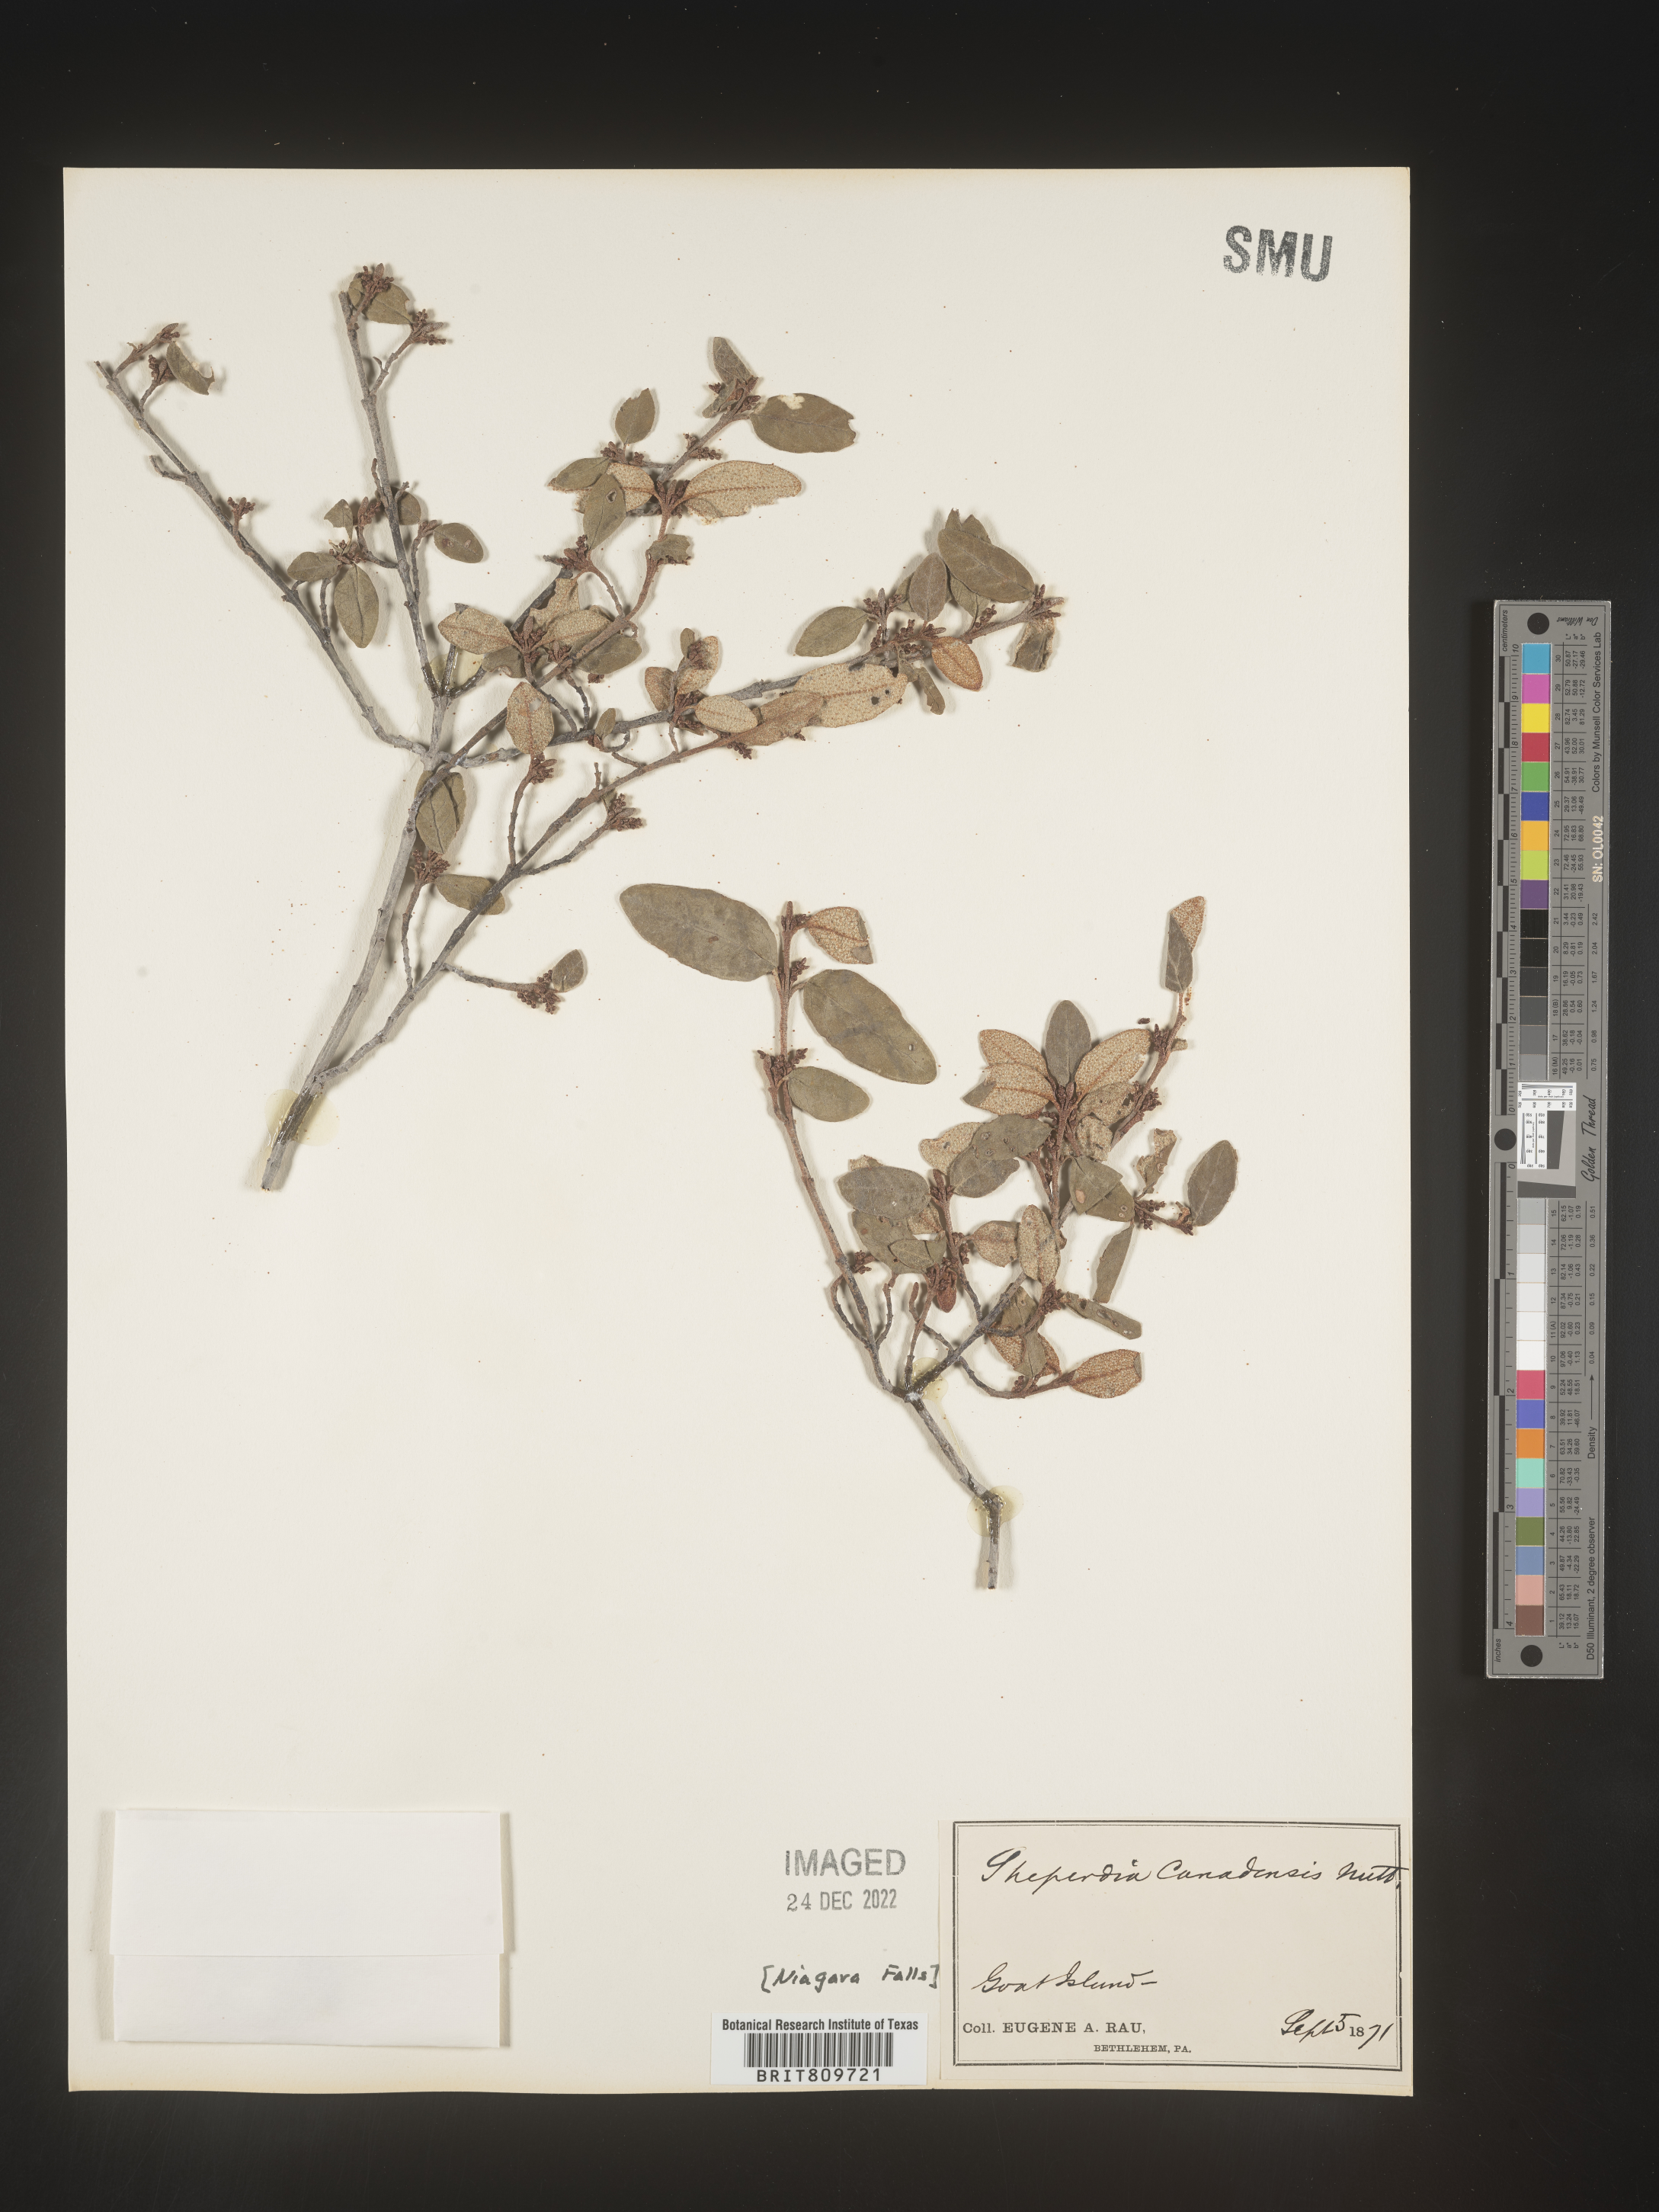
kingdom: Plantae
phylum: Tracheophyta
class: Magnoliopsida
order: Rosales
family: Elaeagnaceae
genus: Shepherdia
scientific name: Shepherdia canadensis
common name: Soapberry
